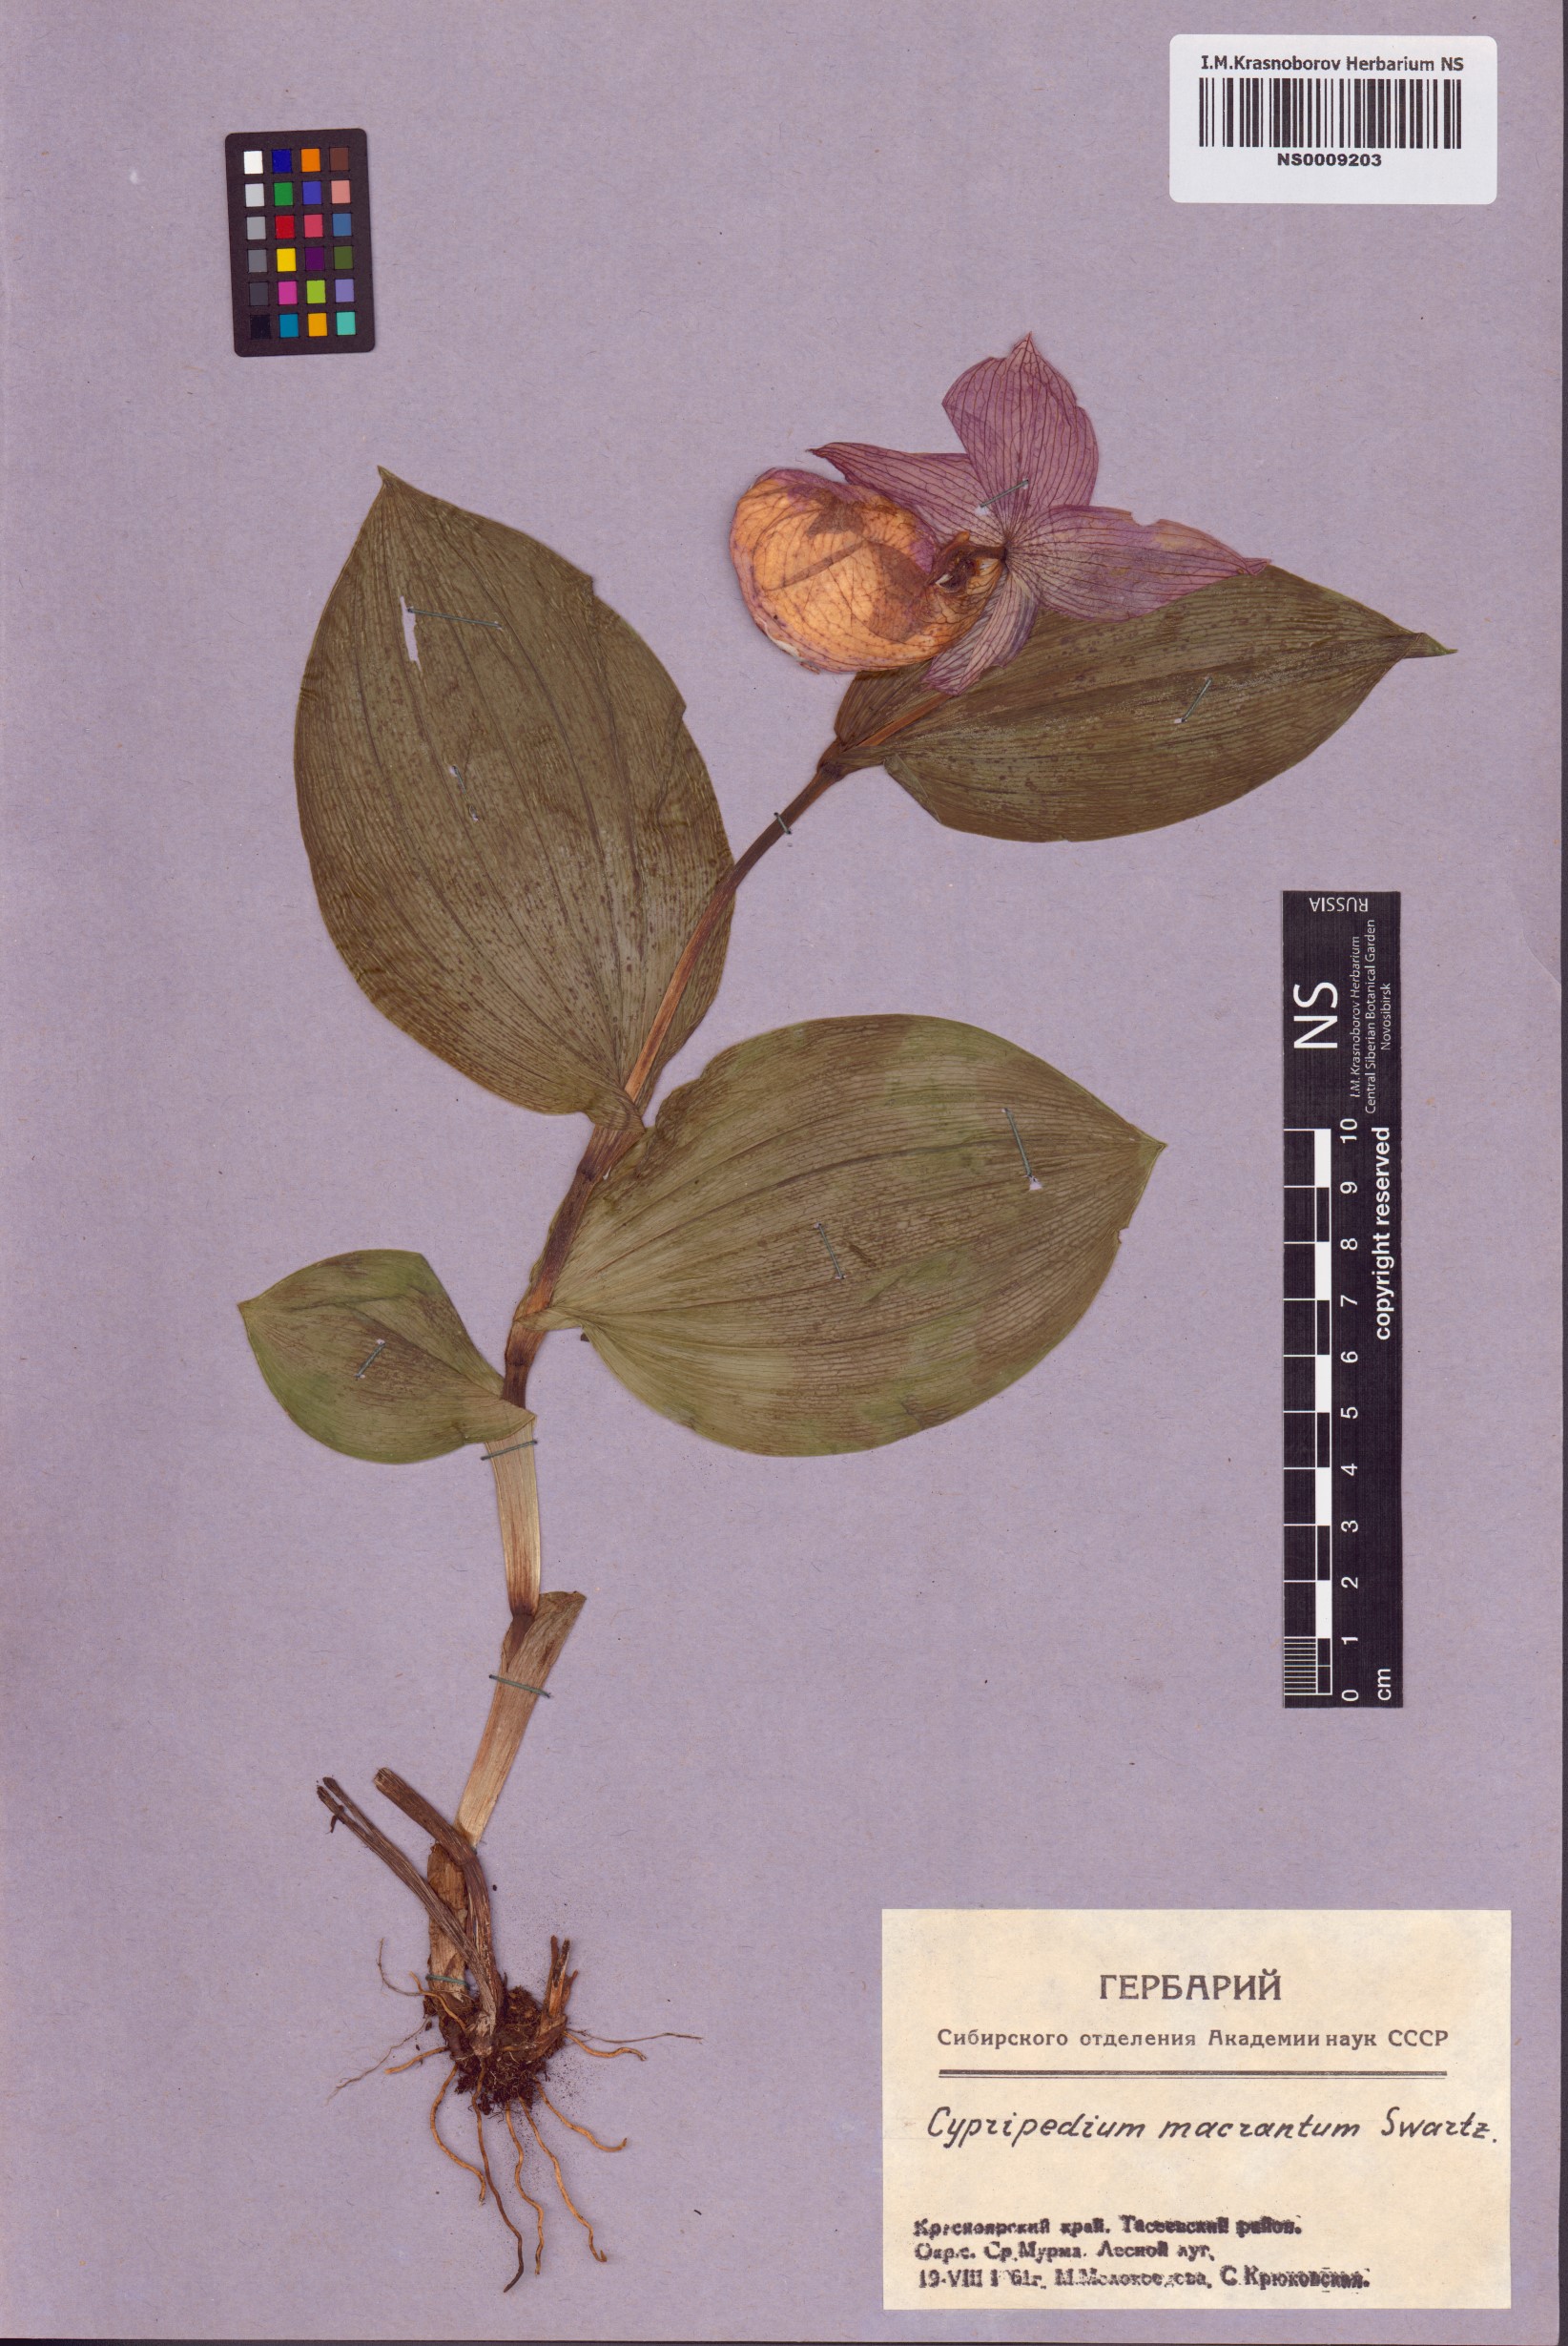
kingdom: Plantae
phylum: Tracheophyta
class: Liliopsida
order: Asparagales
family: Orchidaceae
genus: Cypripedium
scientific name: Cypripedium macranthos
